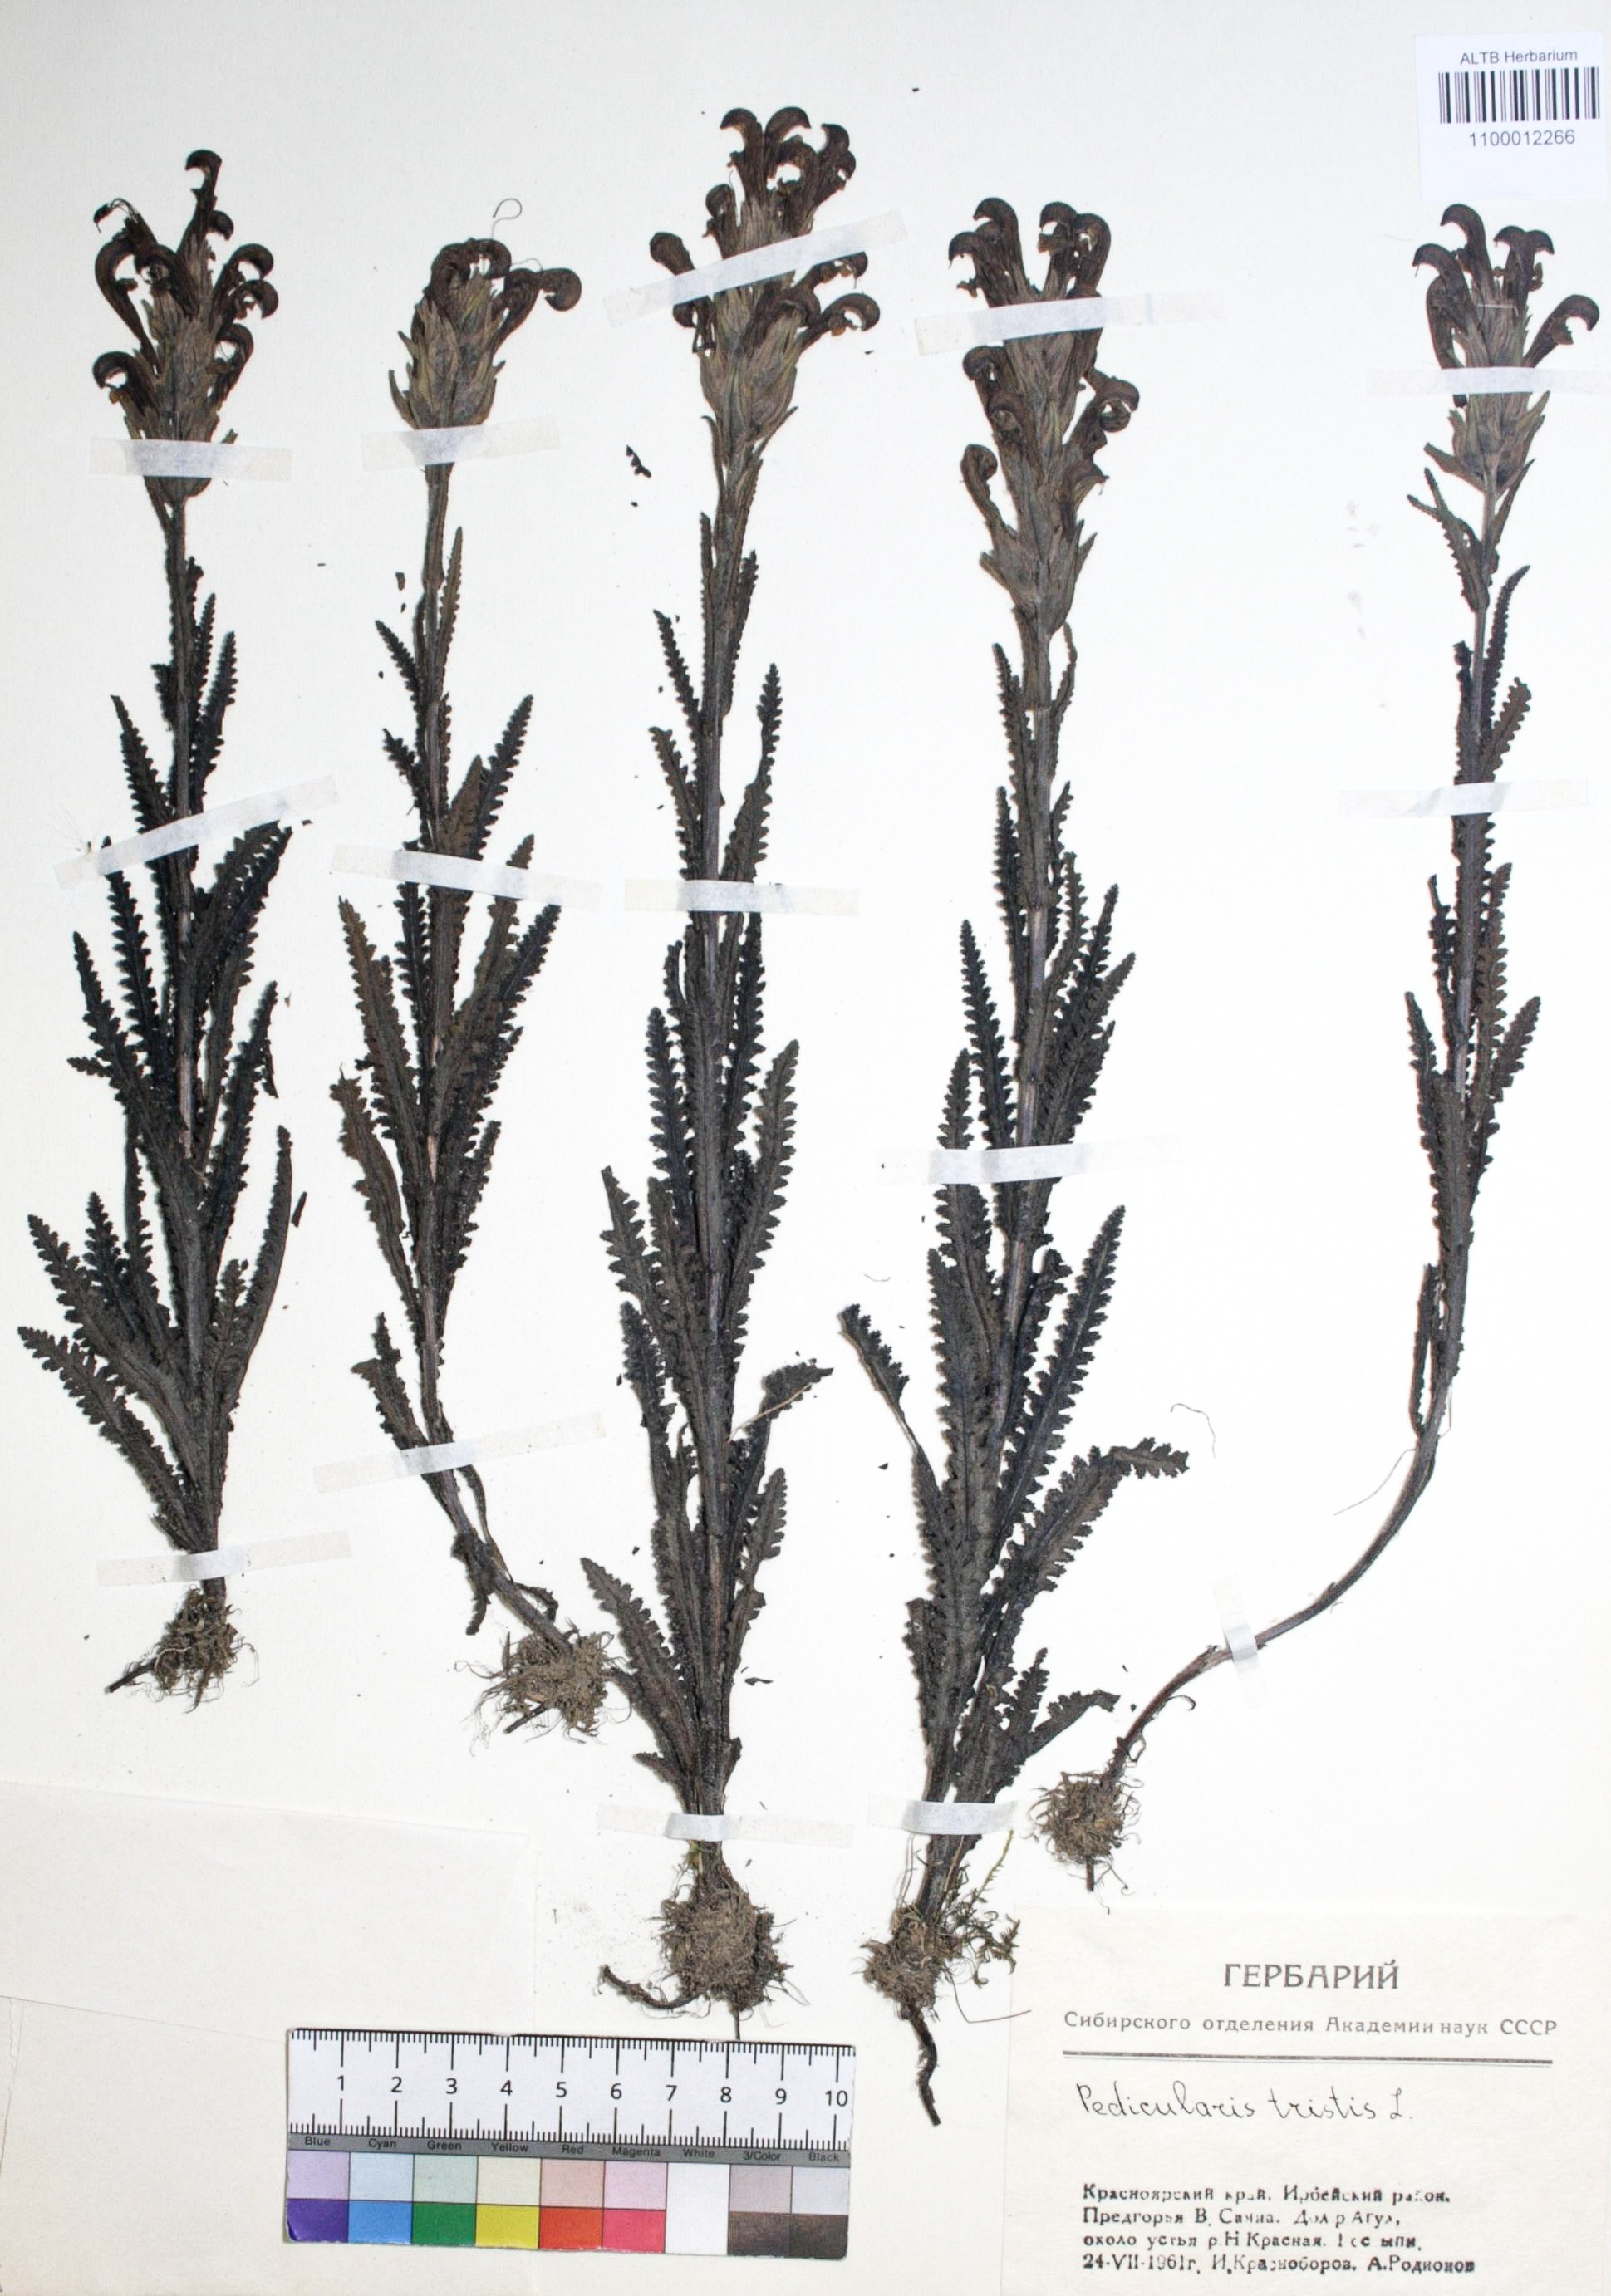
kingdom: Plantae
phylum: Tracheophyta
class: Magnoliopsida
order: Lamiales
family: Orobanchaceae
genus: Pedicularis
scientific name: Pedicularis tristis
